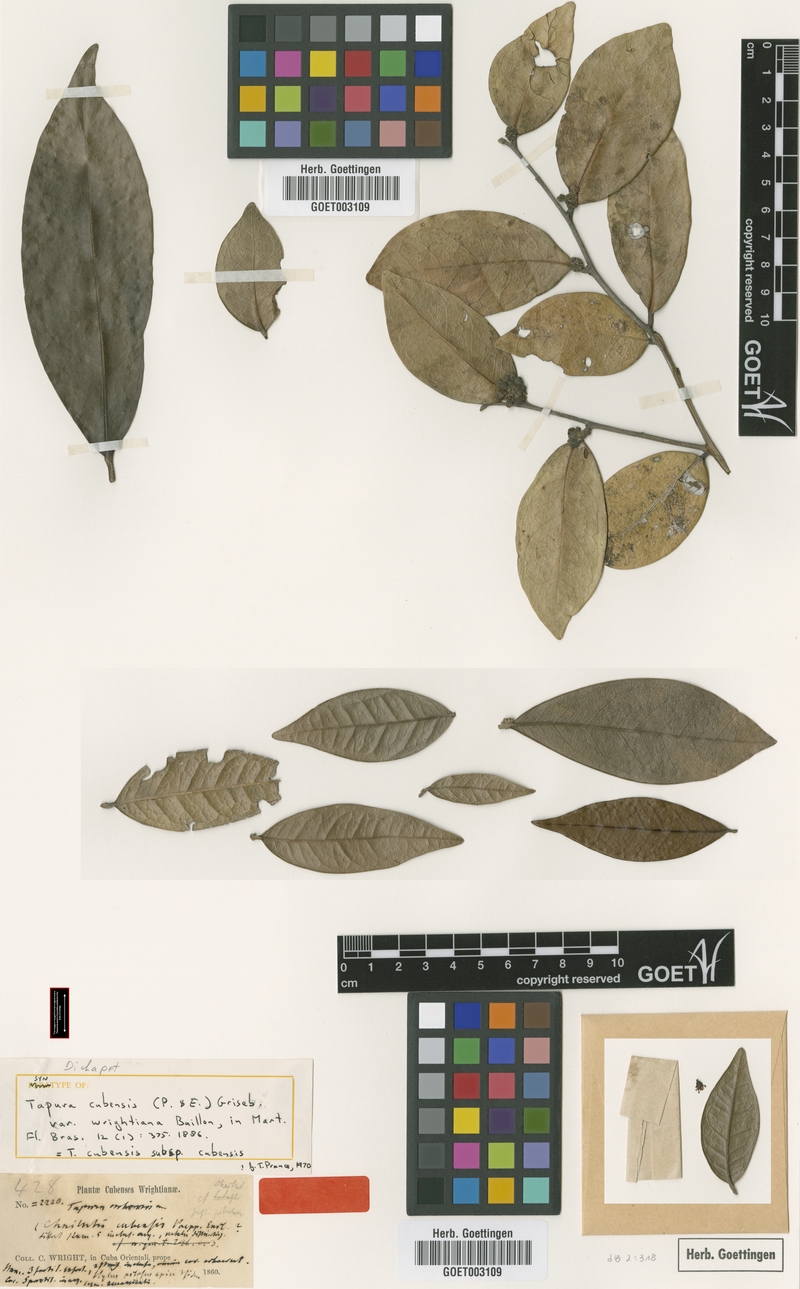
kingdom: Plantae
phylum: Tracheophyta
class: Magnoliopsida
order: Malpighiales
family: Dichapetalaceae
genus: Tapura
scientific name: Tapura cubensis
